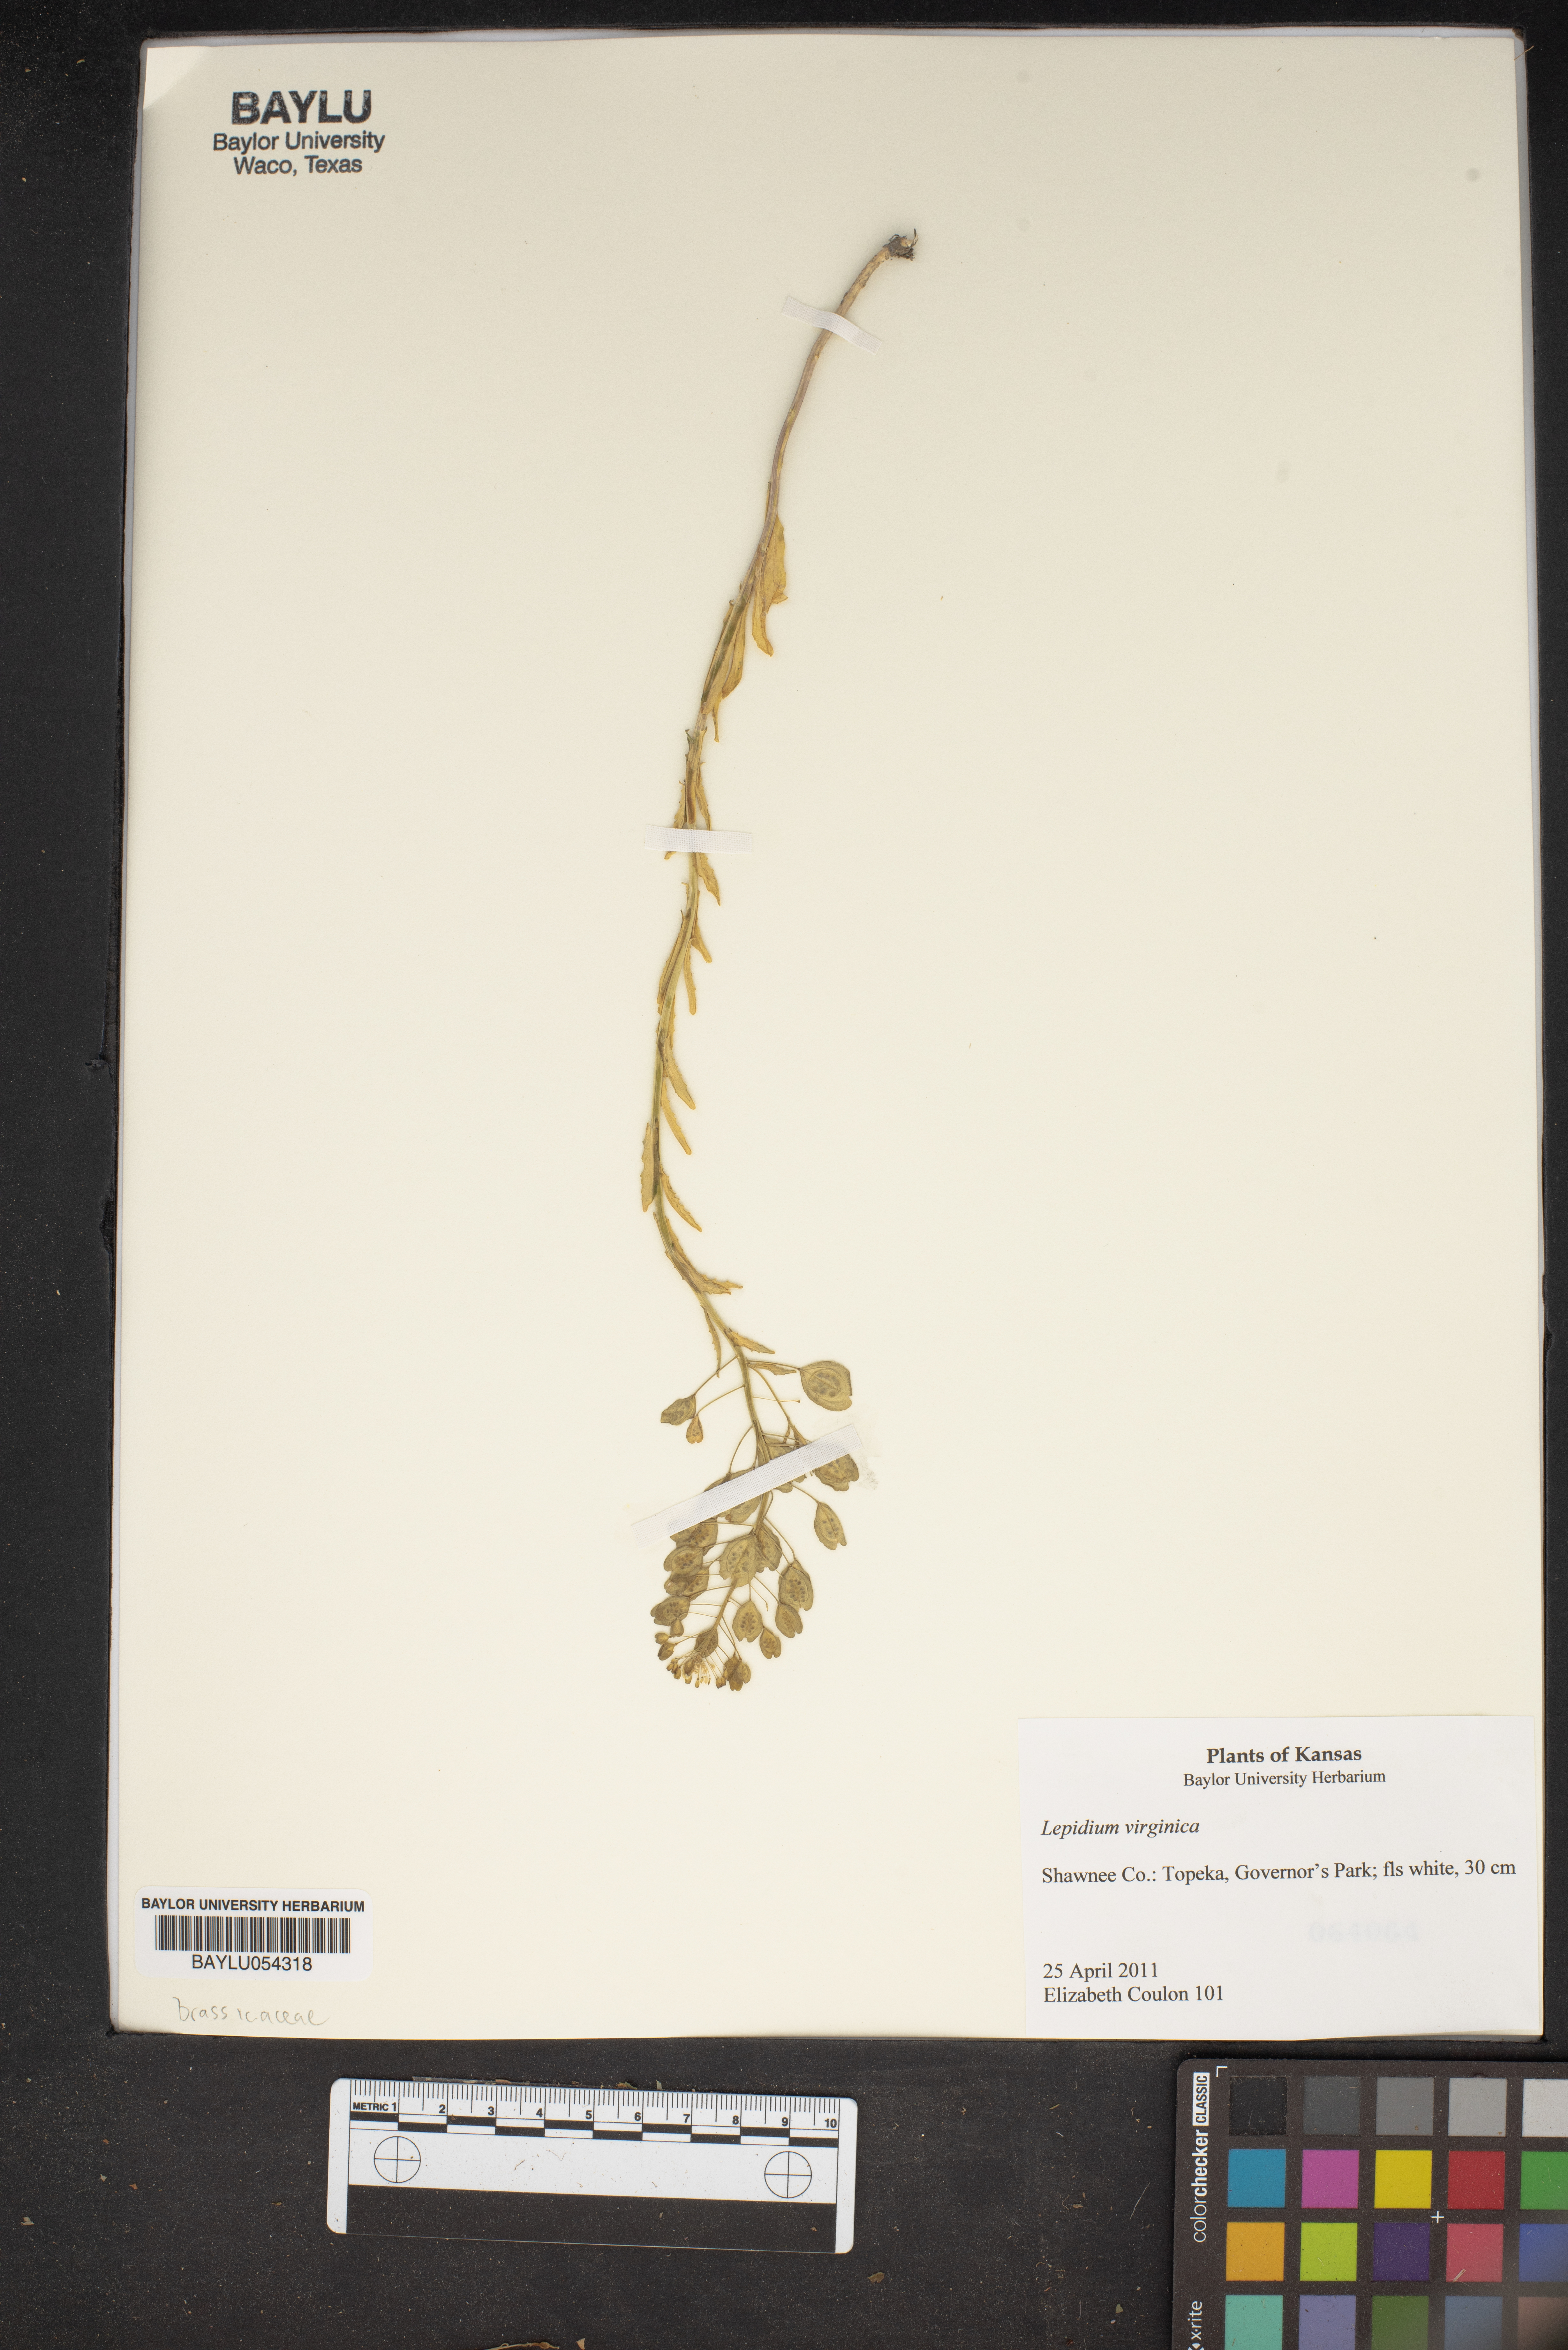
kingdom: Plantae
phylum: Tracheophyta
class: Magnoliopsida
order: Brassicales
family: Brassicaceae
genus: Lepidium
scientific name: Lepidium virginicum
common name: Least pepperwort
